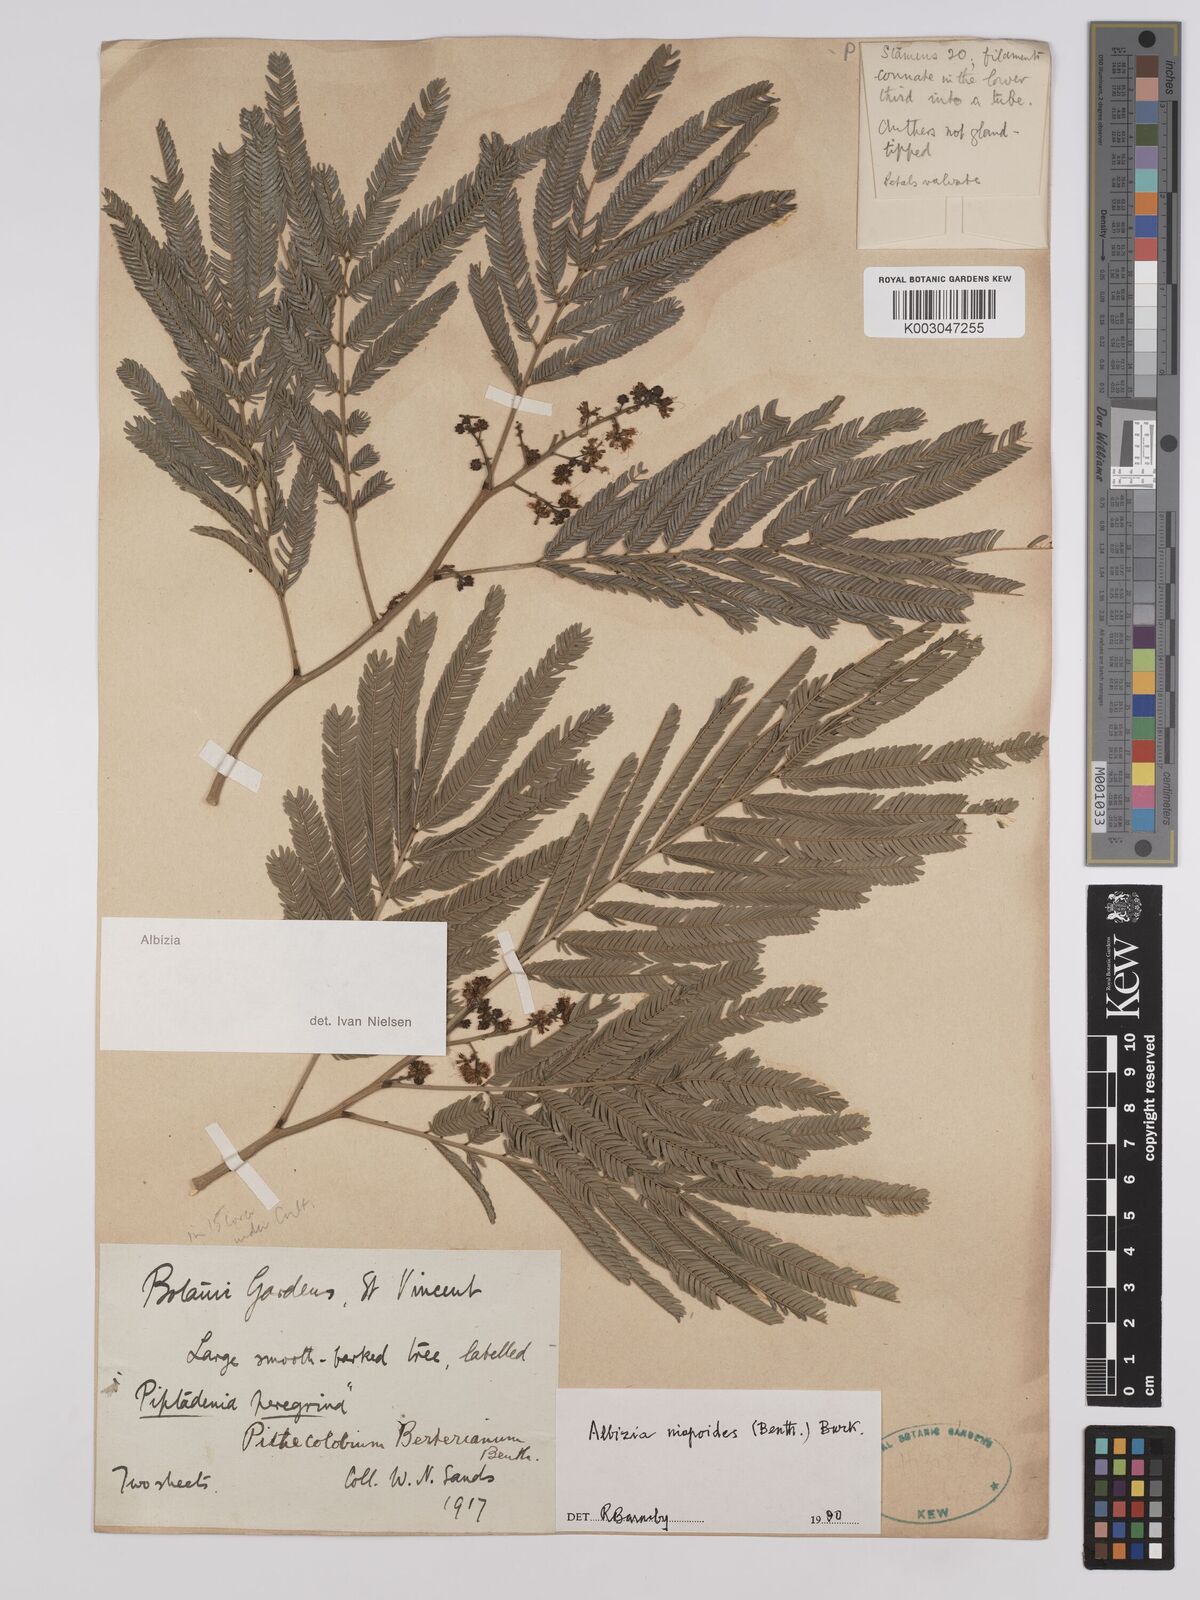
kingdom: Plantae
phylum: Tracheophyta
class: Magnoliopsida
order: Fabales
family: Fabaceae
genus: Albizia
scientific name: Albizia niopoides
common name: Silk tree
